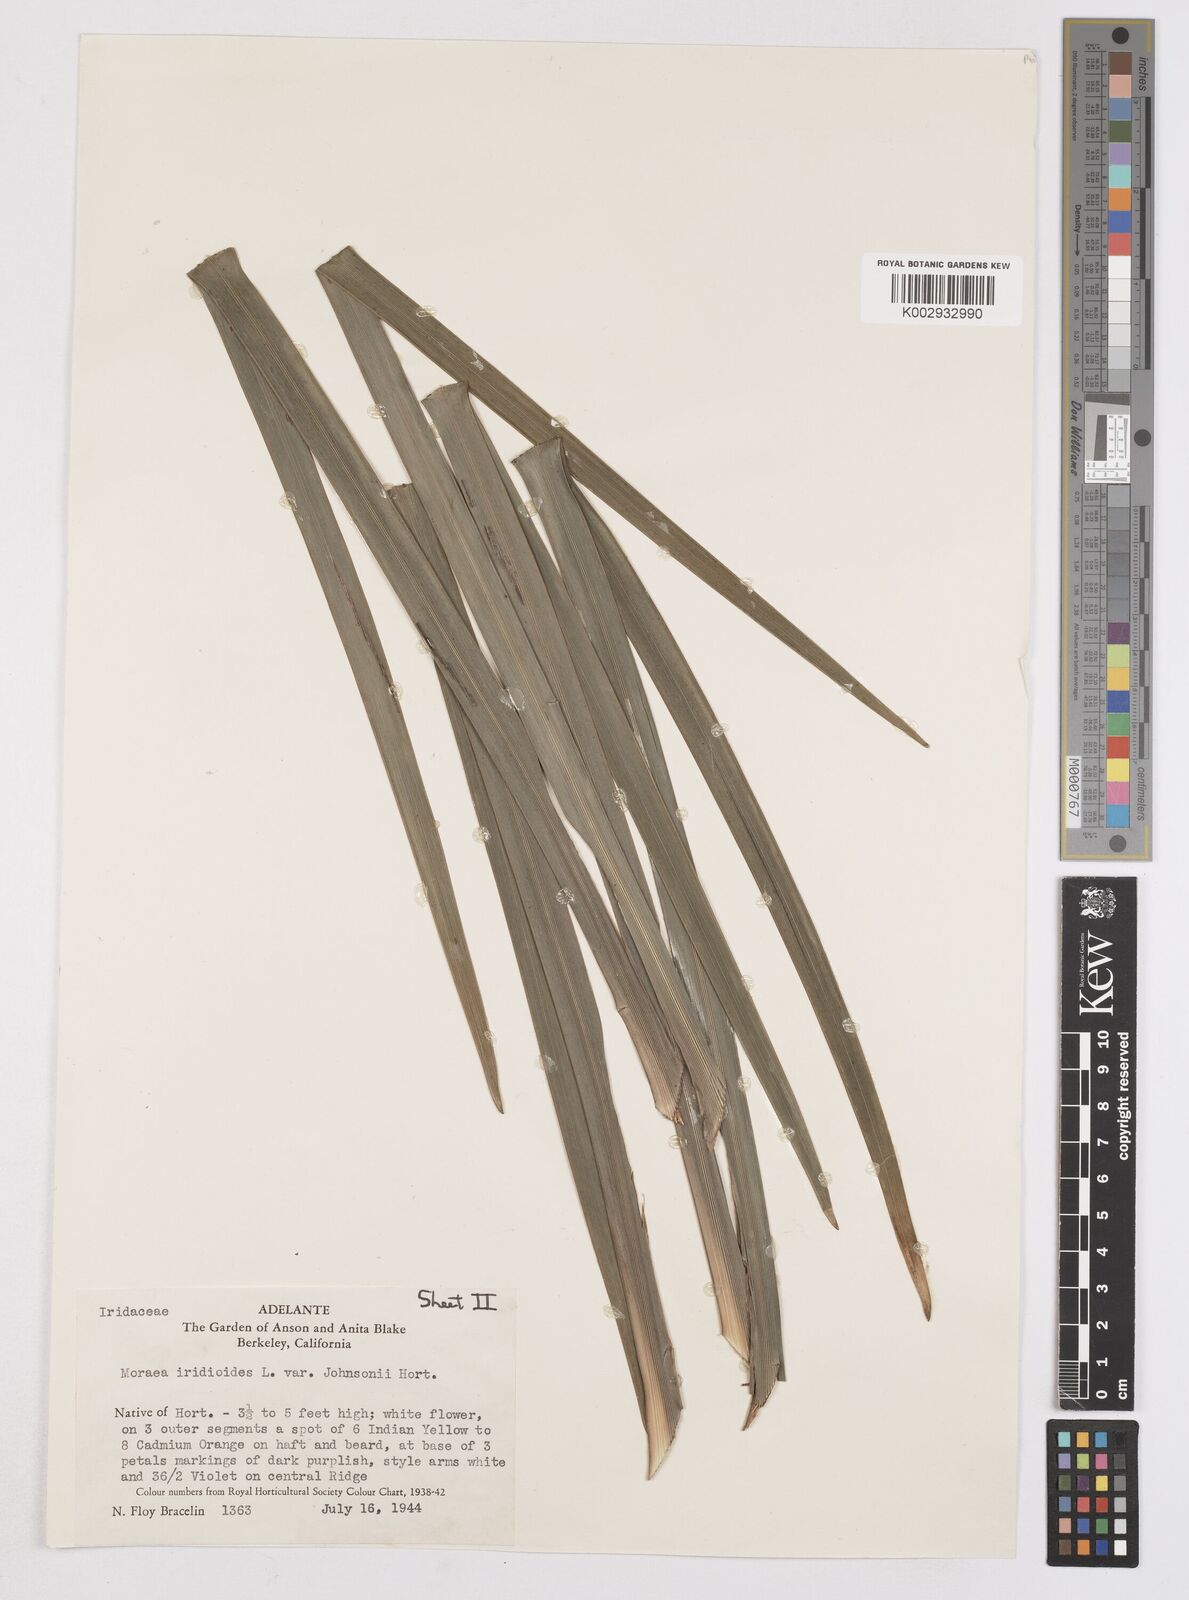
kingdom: Plantae
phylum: Tracheophyta
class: Liliopsida
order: Asparagales
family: Iridaceae
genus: Dietes
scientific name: Dietes iridioides
